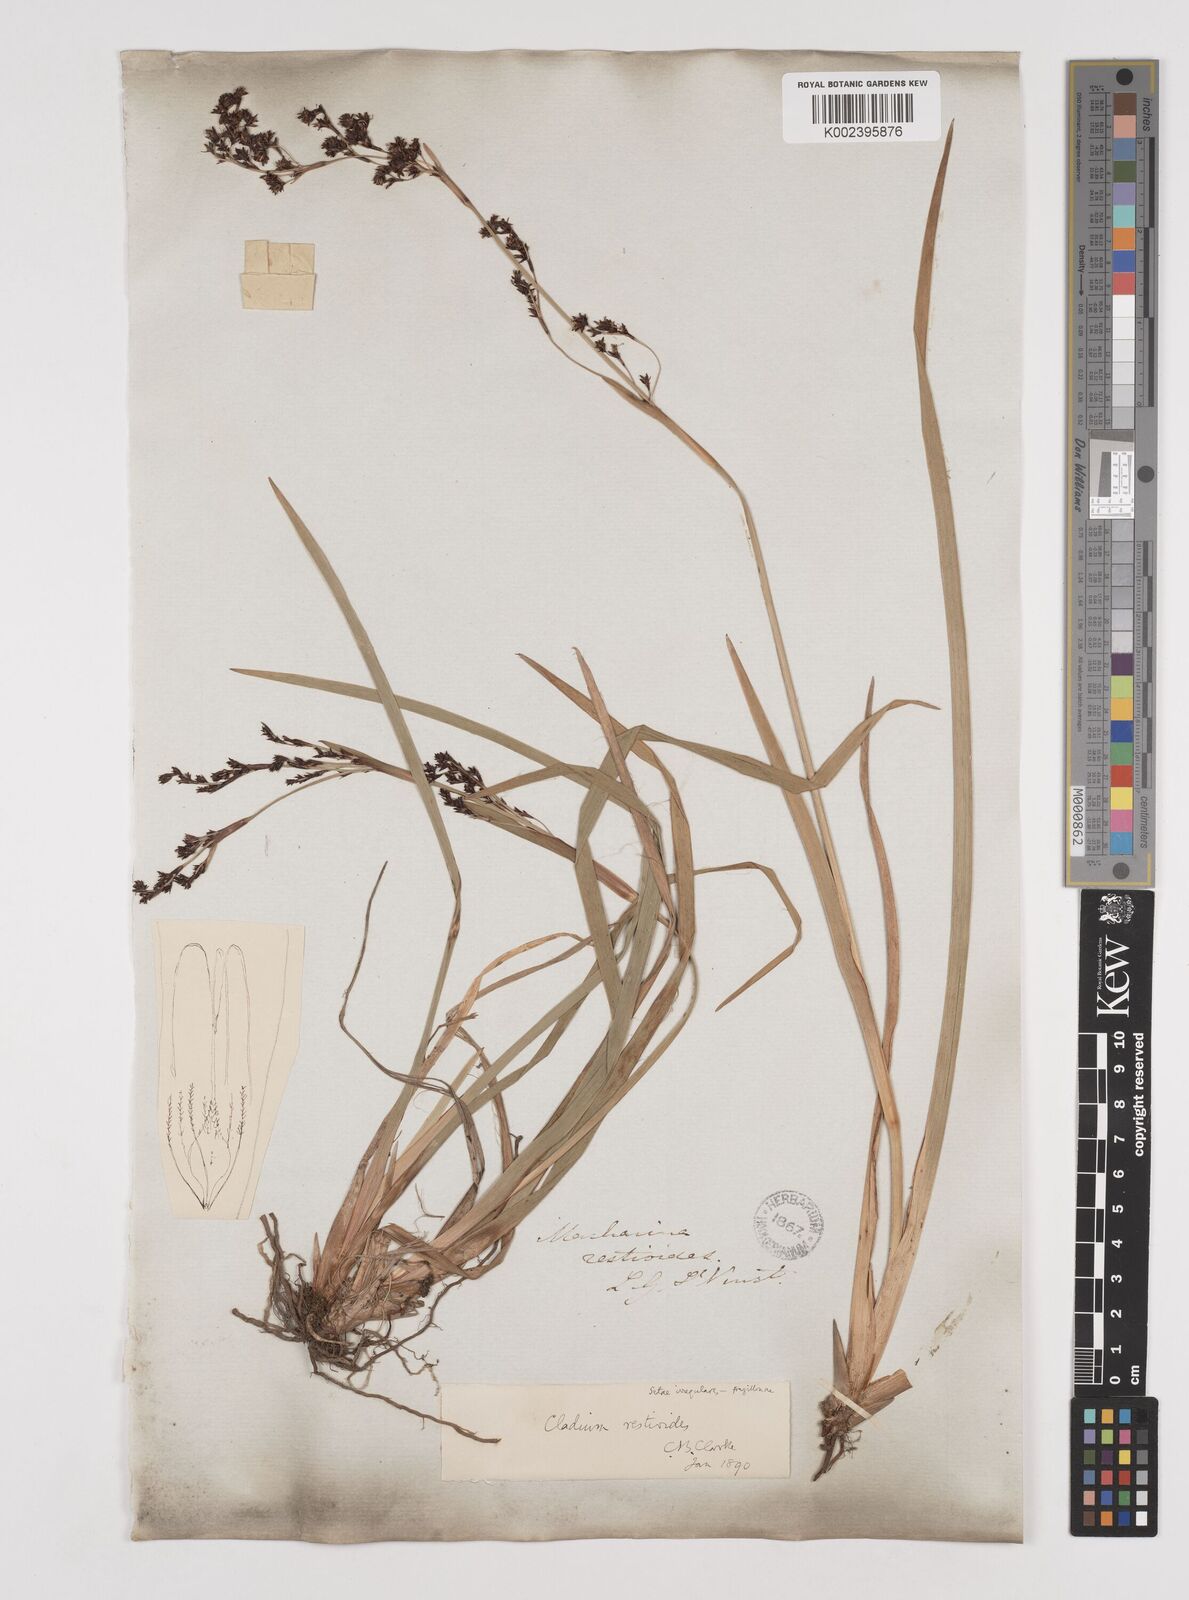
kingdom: Plantae
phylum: Tracheophyta
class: Liliopsida
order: Poales
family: Cyperaceae
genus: Machaerina
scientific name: Machaerina restioides
